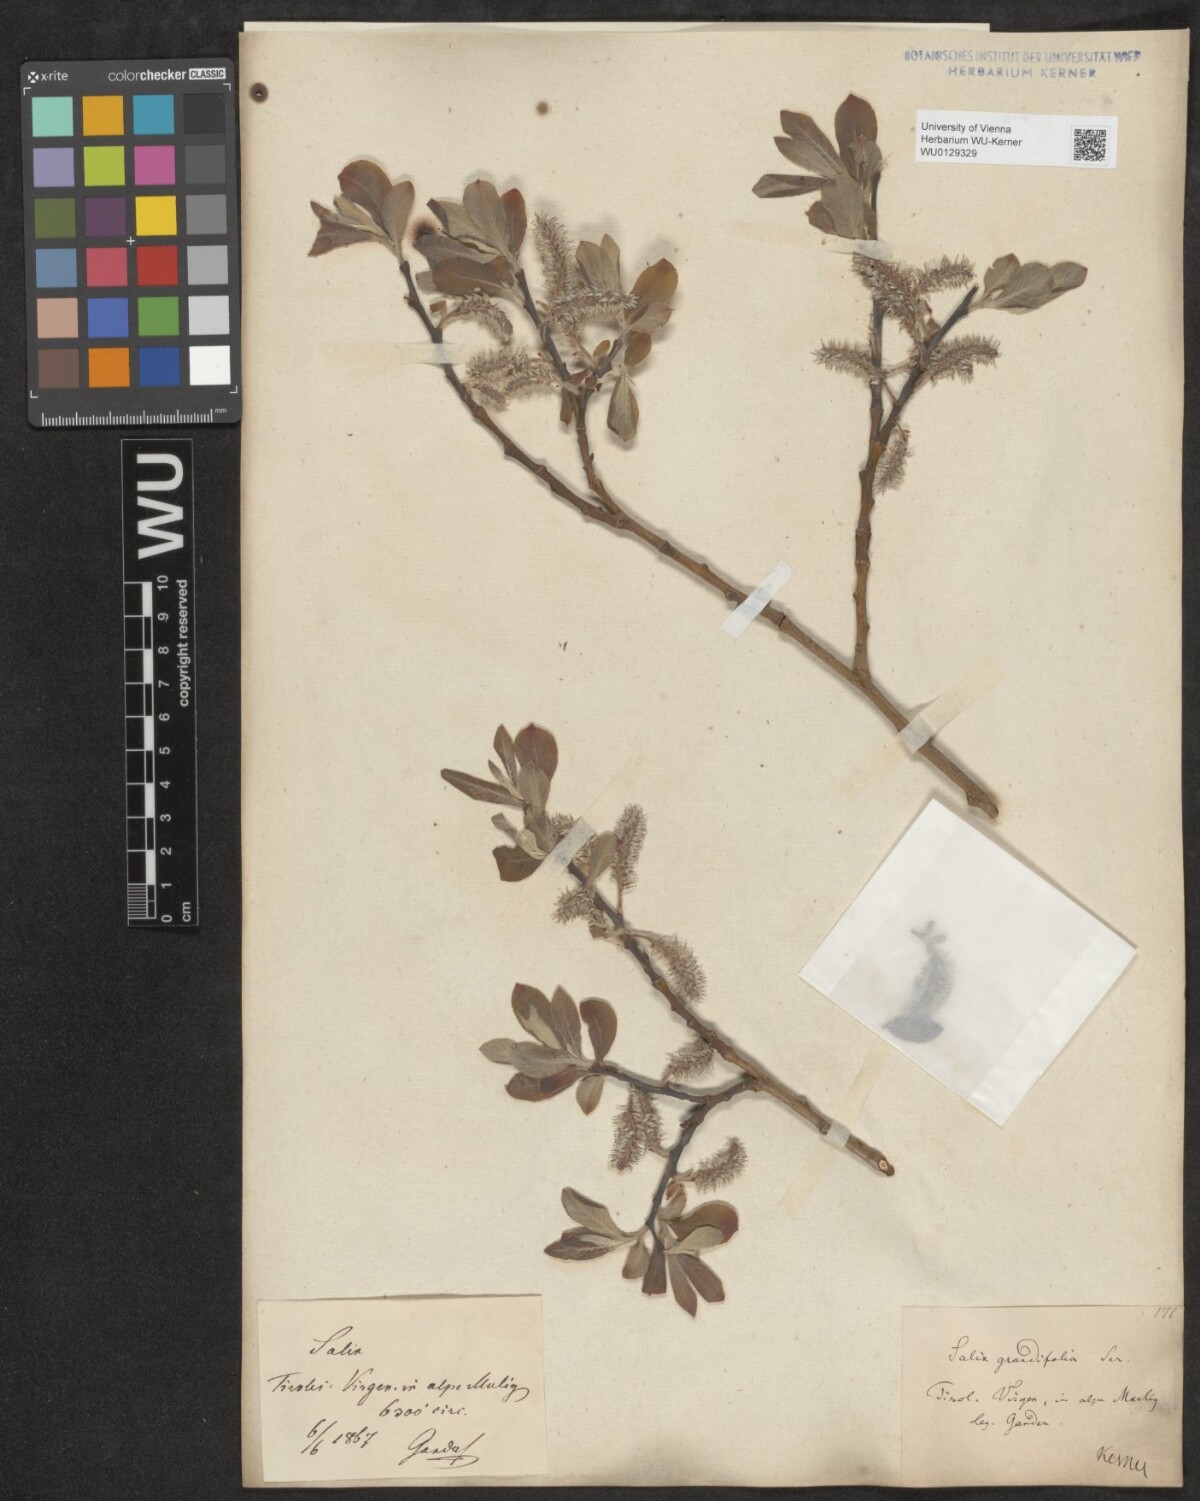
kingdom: Plantae
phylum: Tracheophyta
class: Magnoliopsida
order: Malpighiales
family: Salicaceae
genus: Salix
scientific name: Salix appendiculata
